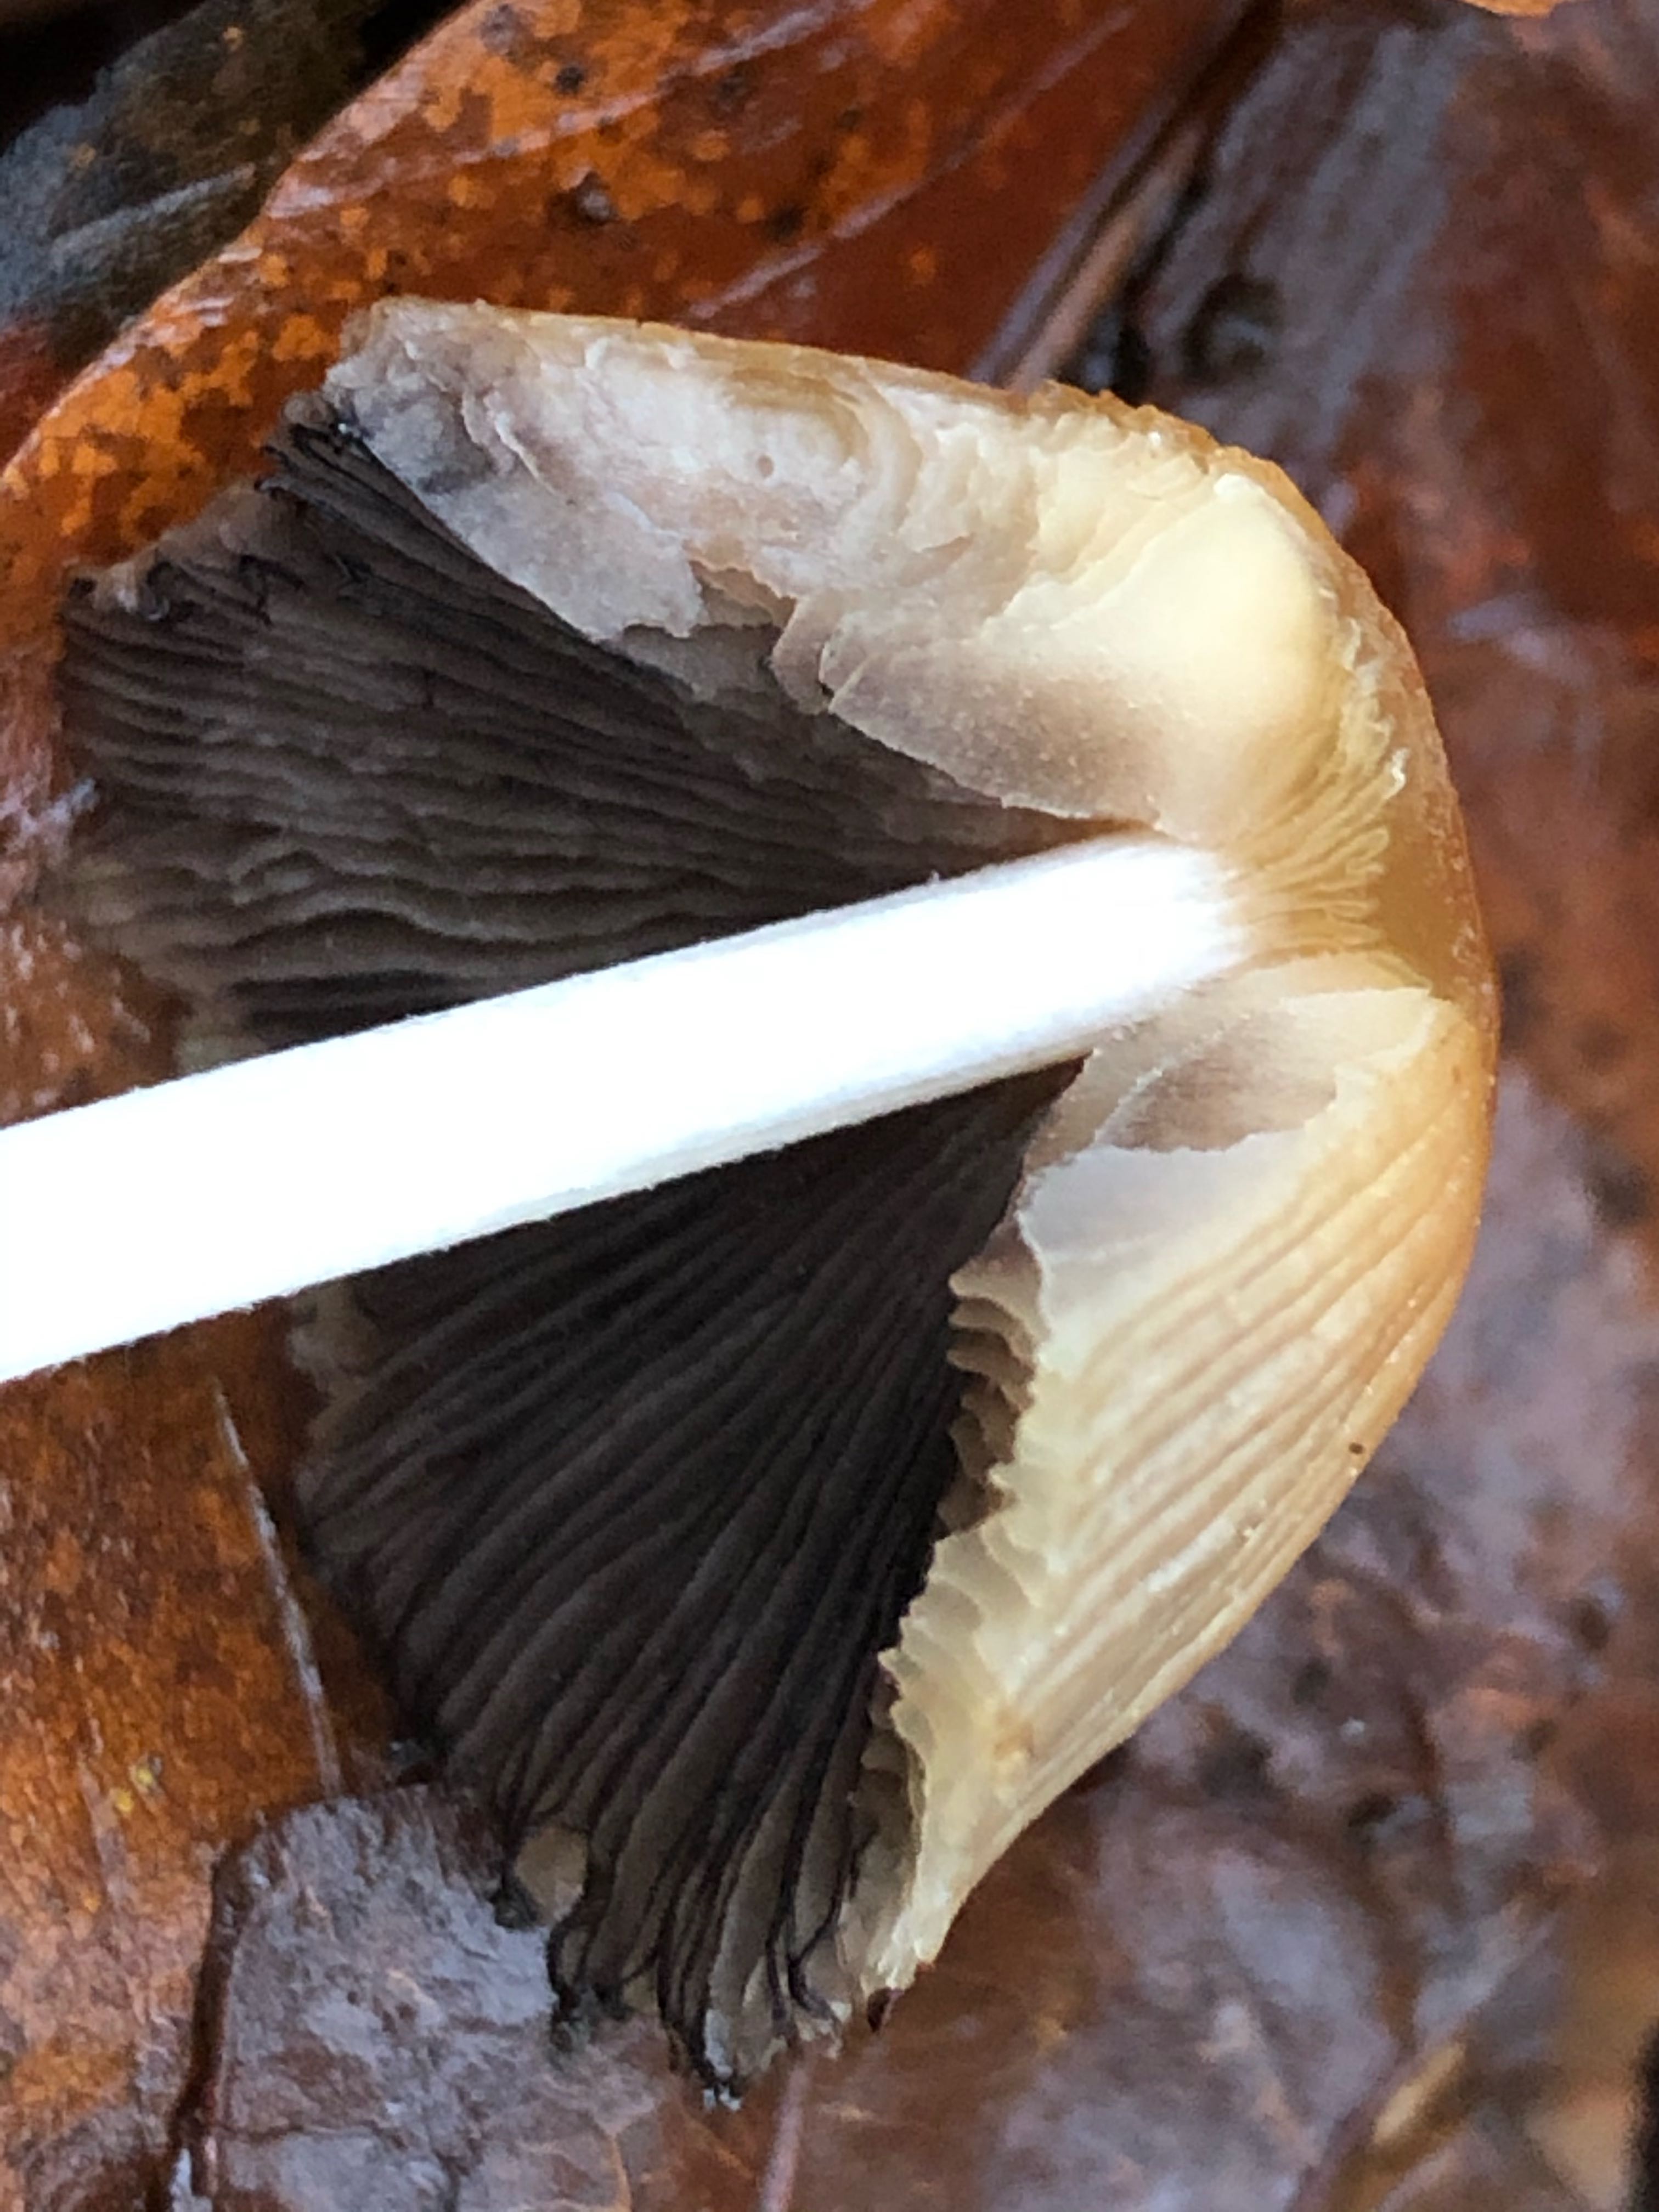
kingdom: Fungi
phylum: Basidiomycota
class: Agaricomycetes
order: Agaricales
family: Psathyrellaceae
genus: Coprinellus
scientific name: Coprinellus micaceus
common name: glimmer-blækhat
